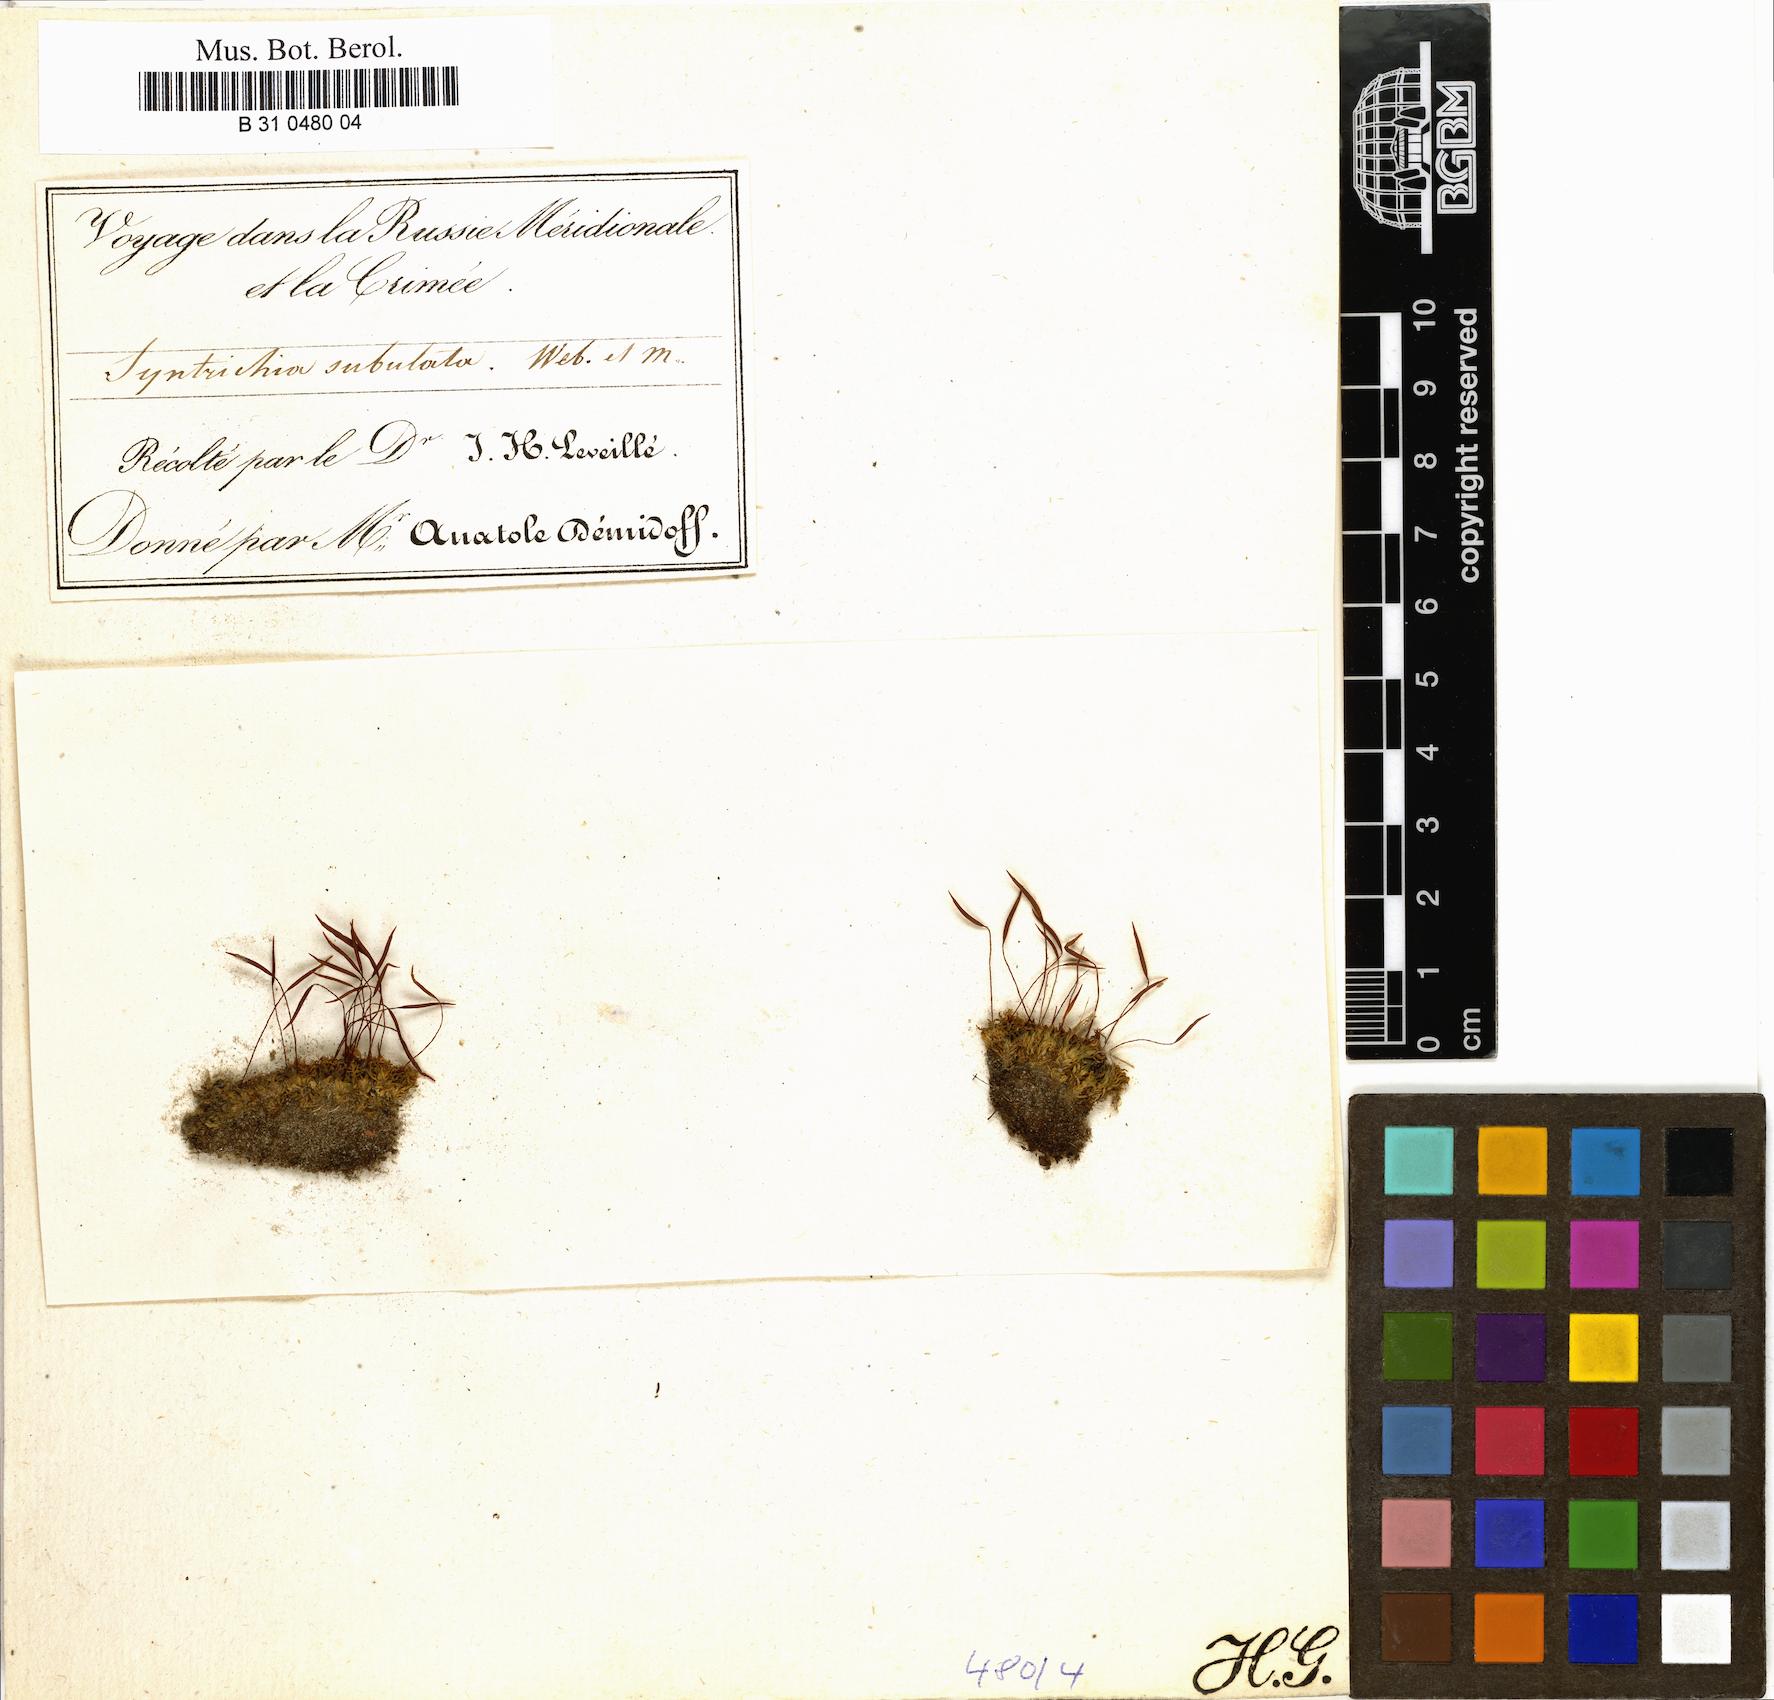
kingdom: Plantae
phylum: Bryophyta
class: Bryopsida
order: Pottiales
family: Pottiaceae
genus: Tortula
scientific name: Tortula subulata
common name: Upright screw-moss
